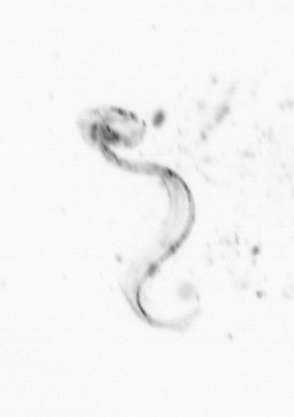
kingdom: Animalia
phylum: Chordata
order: Copelata
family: Fritillariidae
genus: Appendicularia
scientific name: Appendicularia
